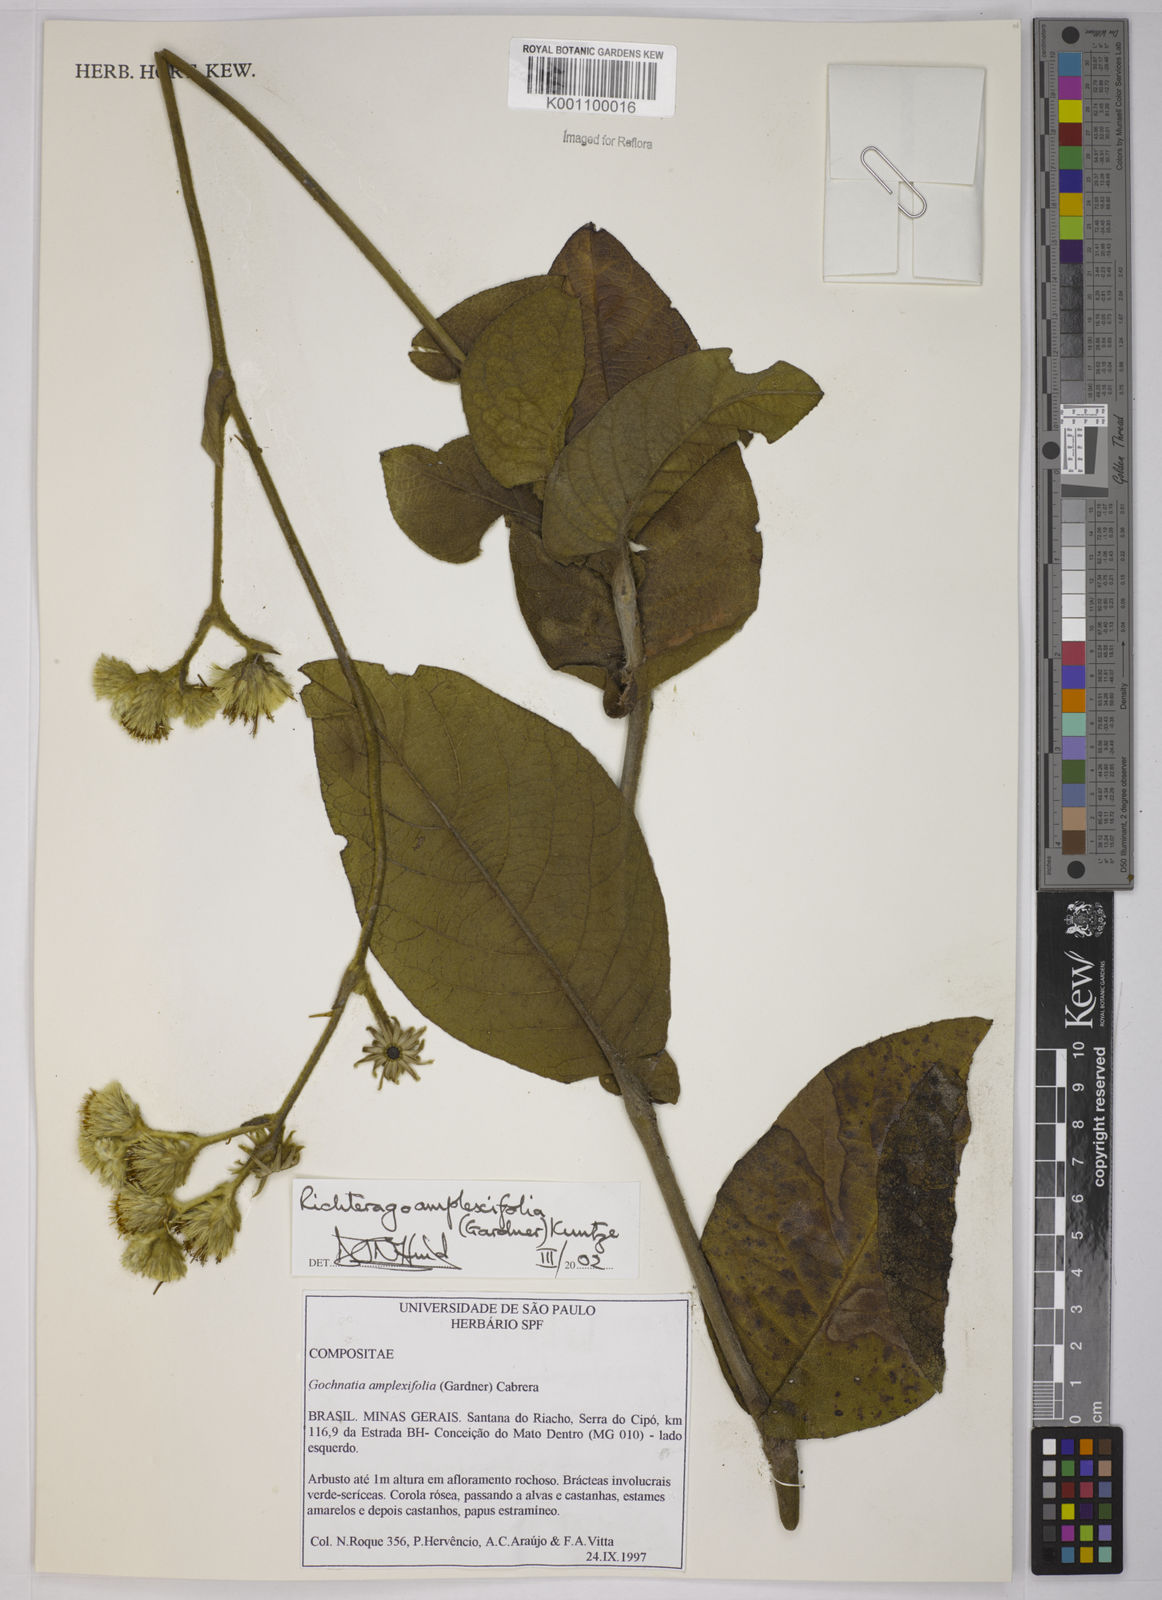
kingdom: Plantae
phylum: Tracheophyta
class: Magnoliopsida
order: Asterales
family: Asteraceae
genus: Richterago
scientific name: Richterago amplexifolia
